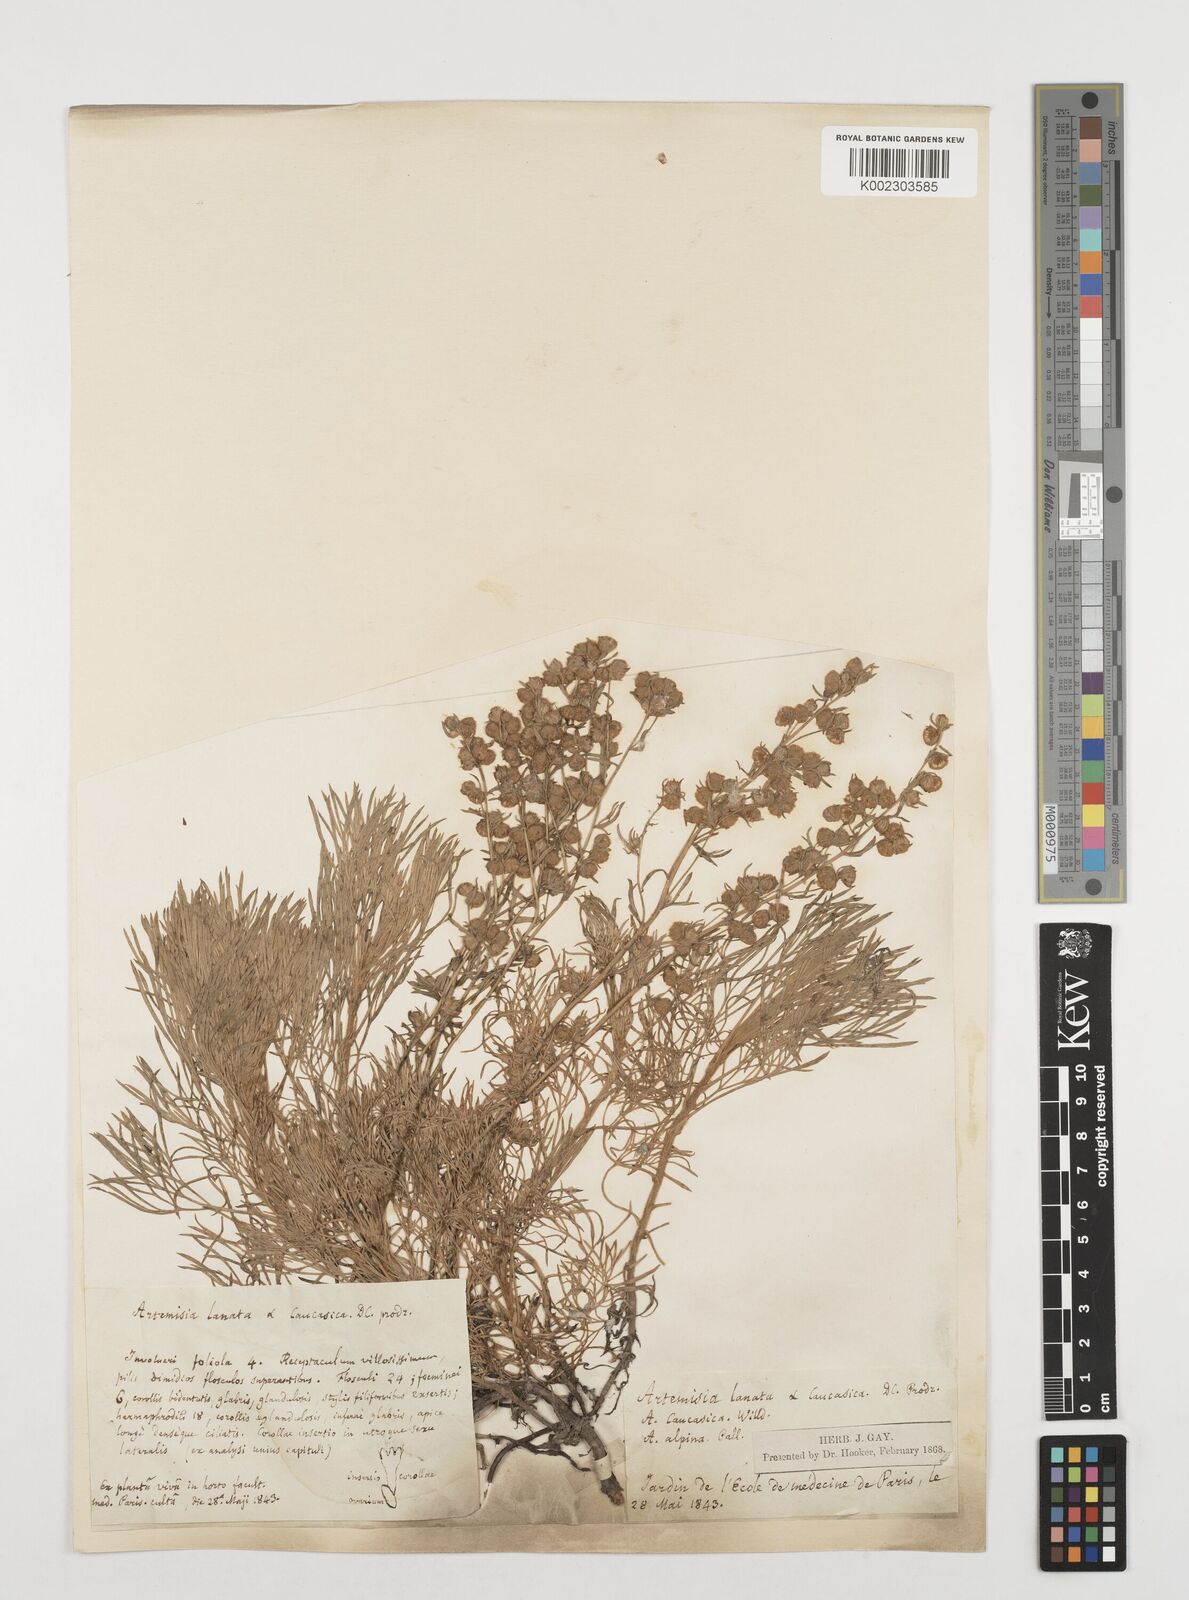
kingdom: Plantae
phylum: Tracheophyta
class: Magnoliopsida
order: Asterales
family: Asteraceae
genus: Artemisia
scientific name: Artemisia alpina
